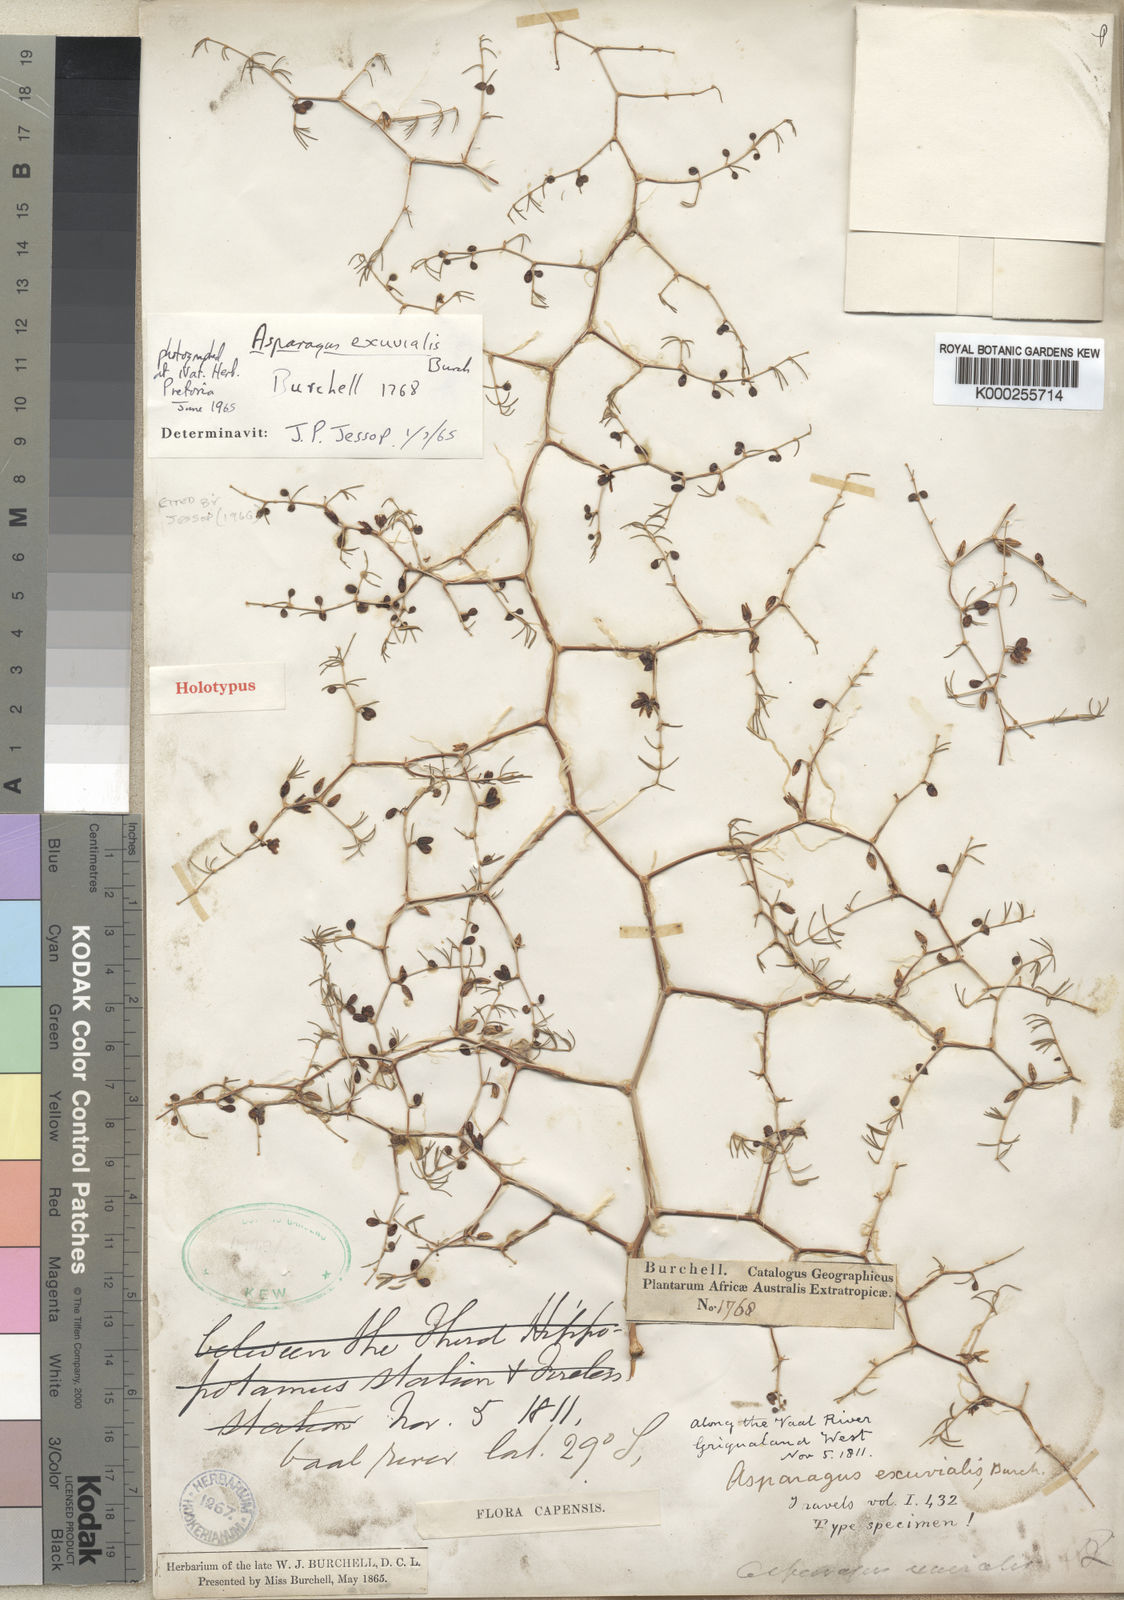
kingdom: Plantae
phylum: Tracheophyta
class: Liliopsida
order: Asparagales
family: Asparagaceae
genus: Asparagus
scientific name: Asparagus exuvialis
